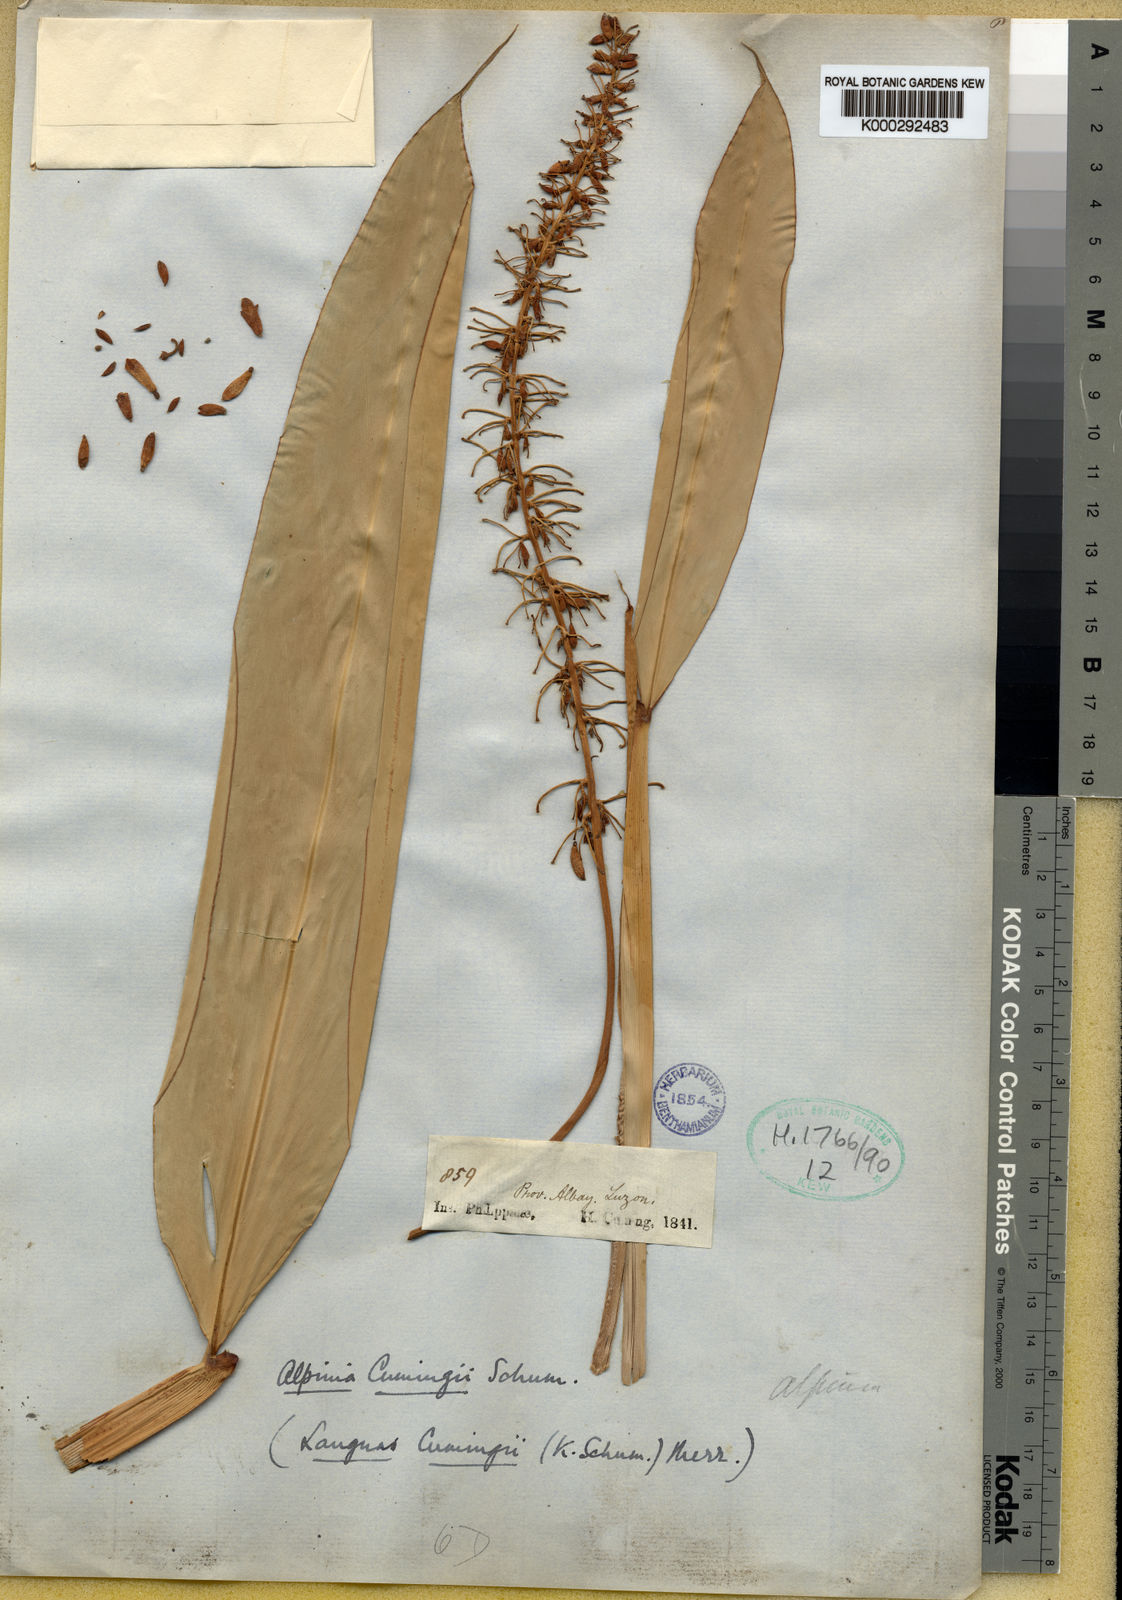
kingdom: Plantae
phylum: Tracheophyta
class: Liliopsida
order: Zingiberales
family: Zingiberaceae
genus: Alpinia
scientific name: Alpinia cumingii
